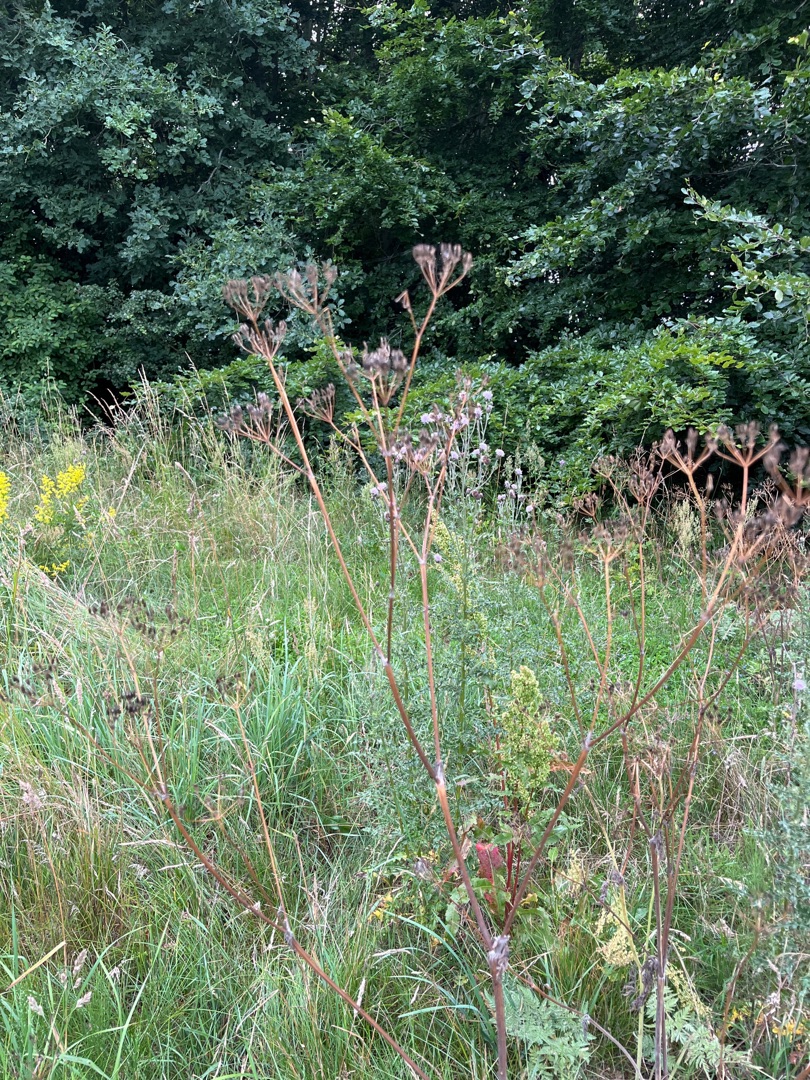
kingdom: Plantae
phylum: Tracheophyta
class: Magnoliopsida
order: Apiales
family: Apiaceae
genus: Anthriscus
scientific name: Anthriscus sylvestris
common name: Vild kørvel
